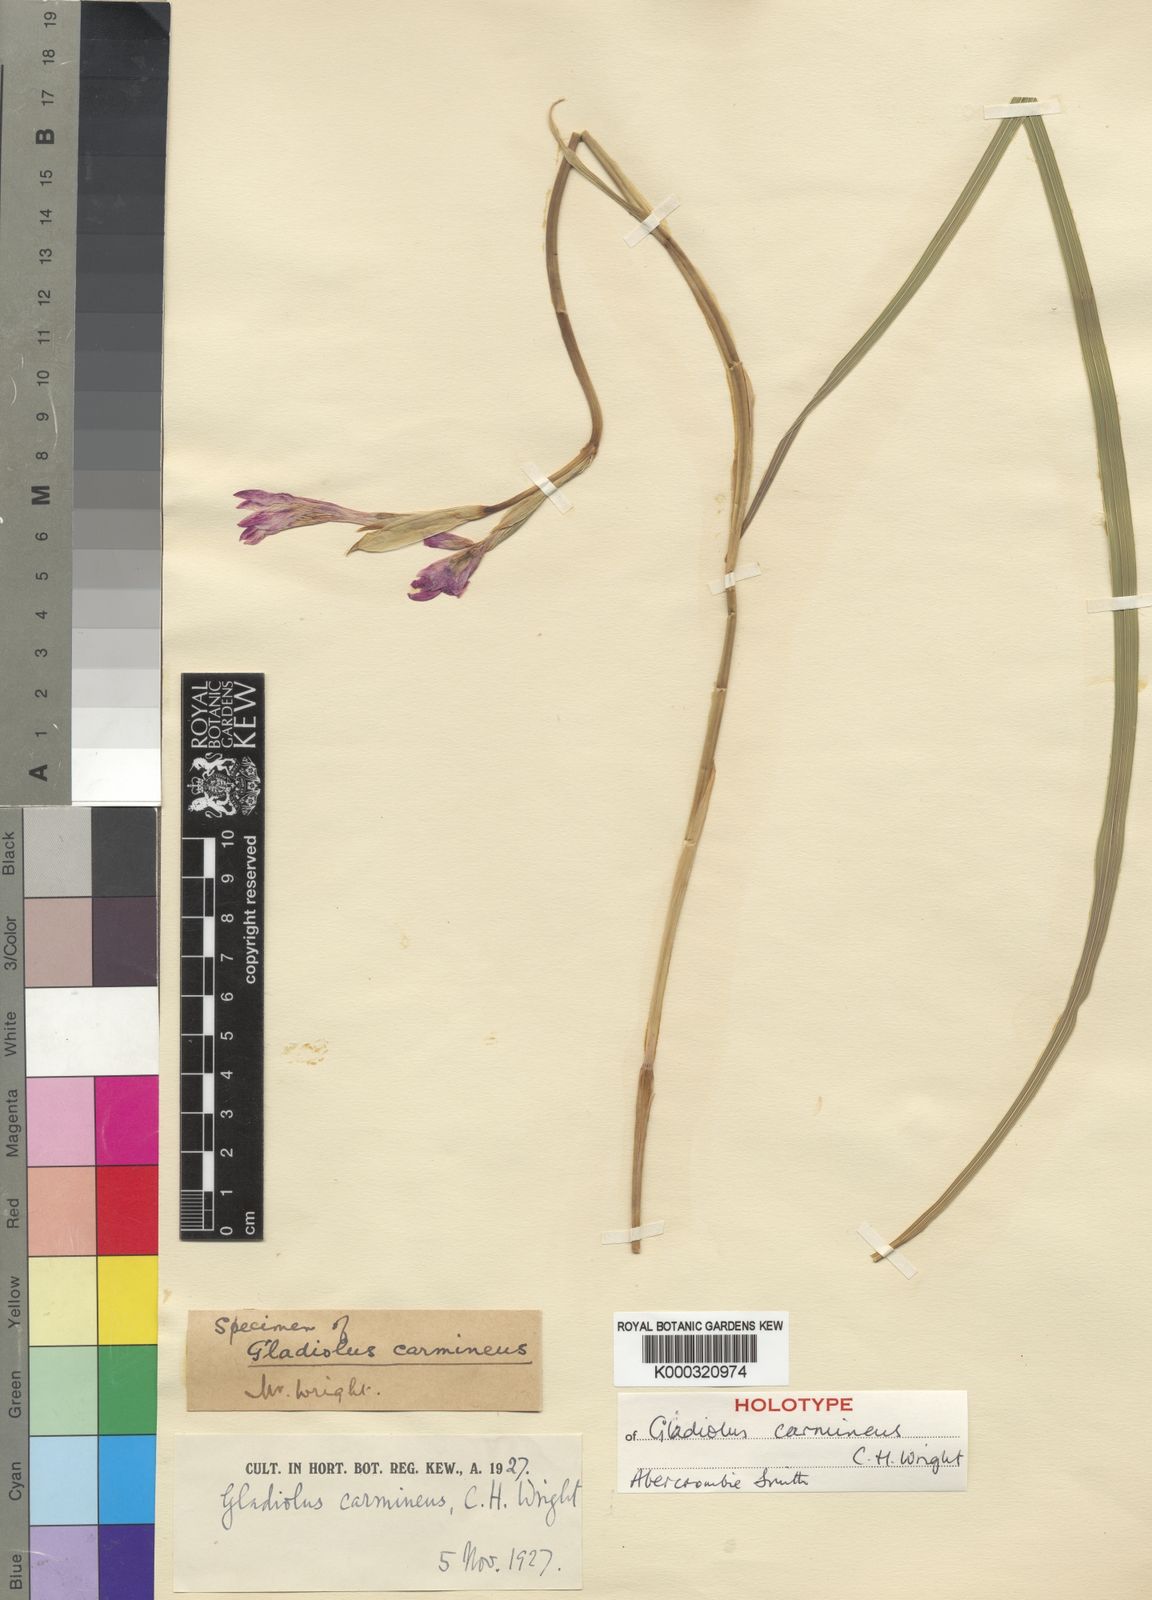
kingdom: Plantae
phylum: Tracheophyta
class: Liliopsida
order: Asparagales
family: Iridaceae
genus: Gladiolus
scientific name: Gladiolus carmineus
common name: Hermanus gladiolus
